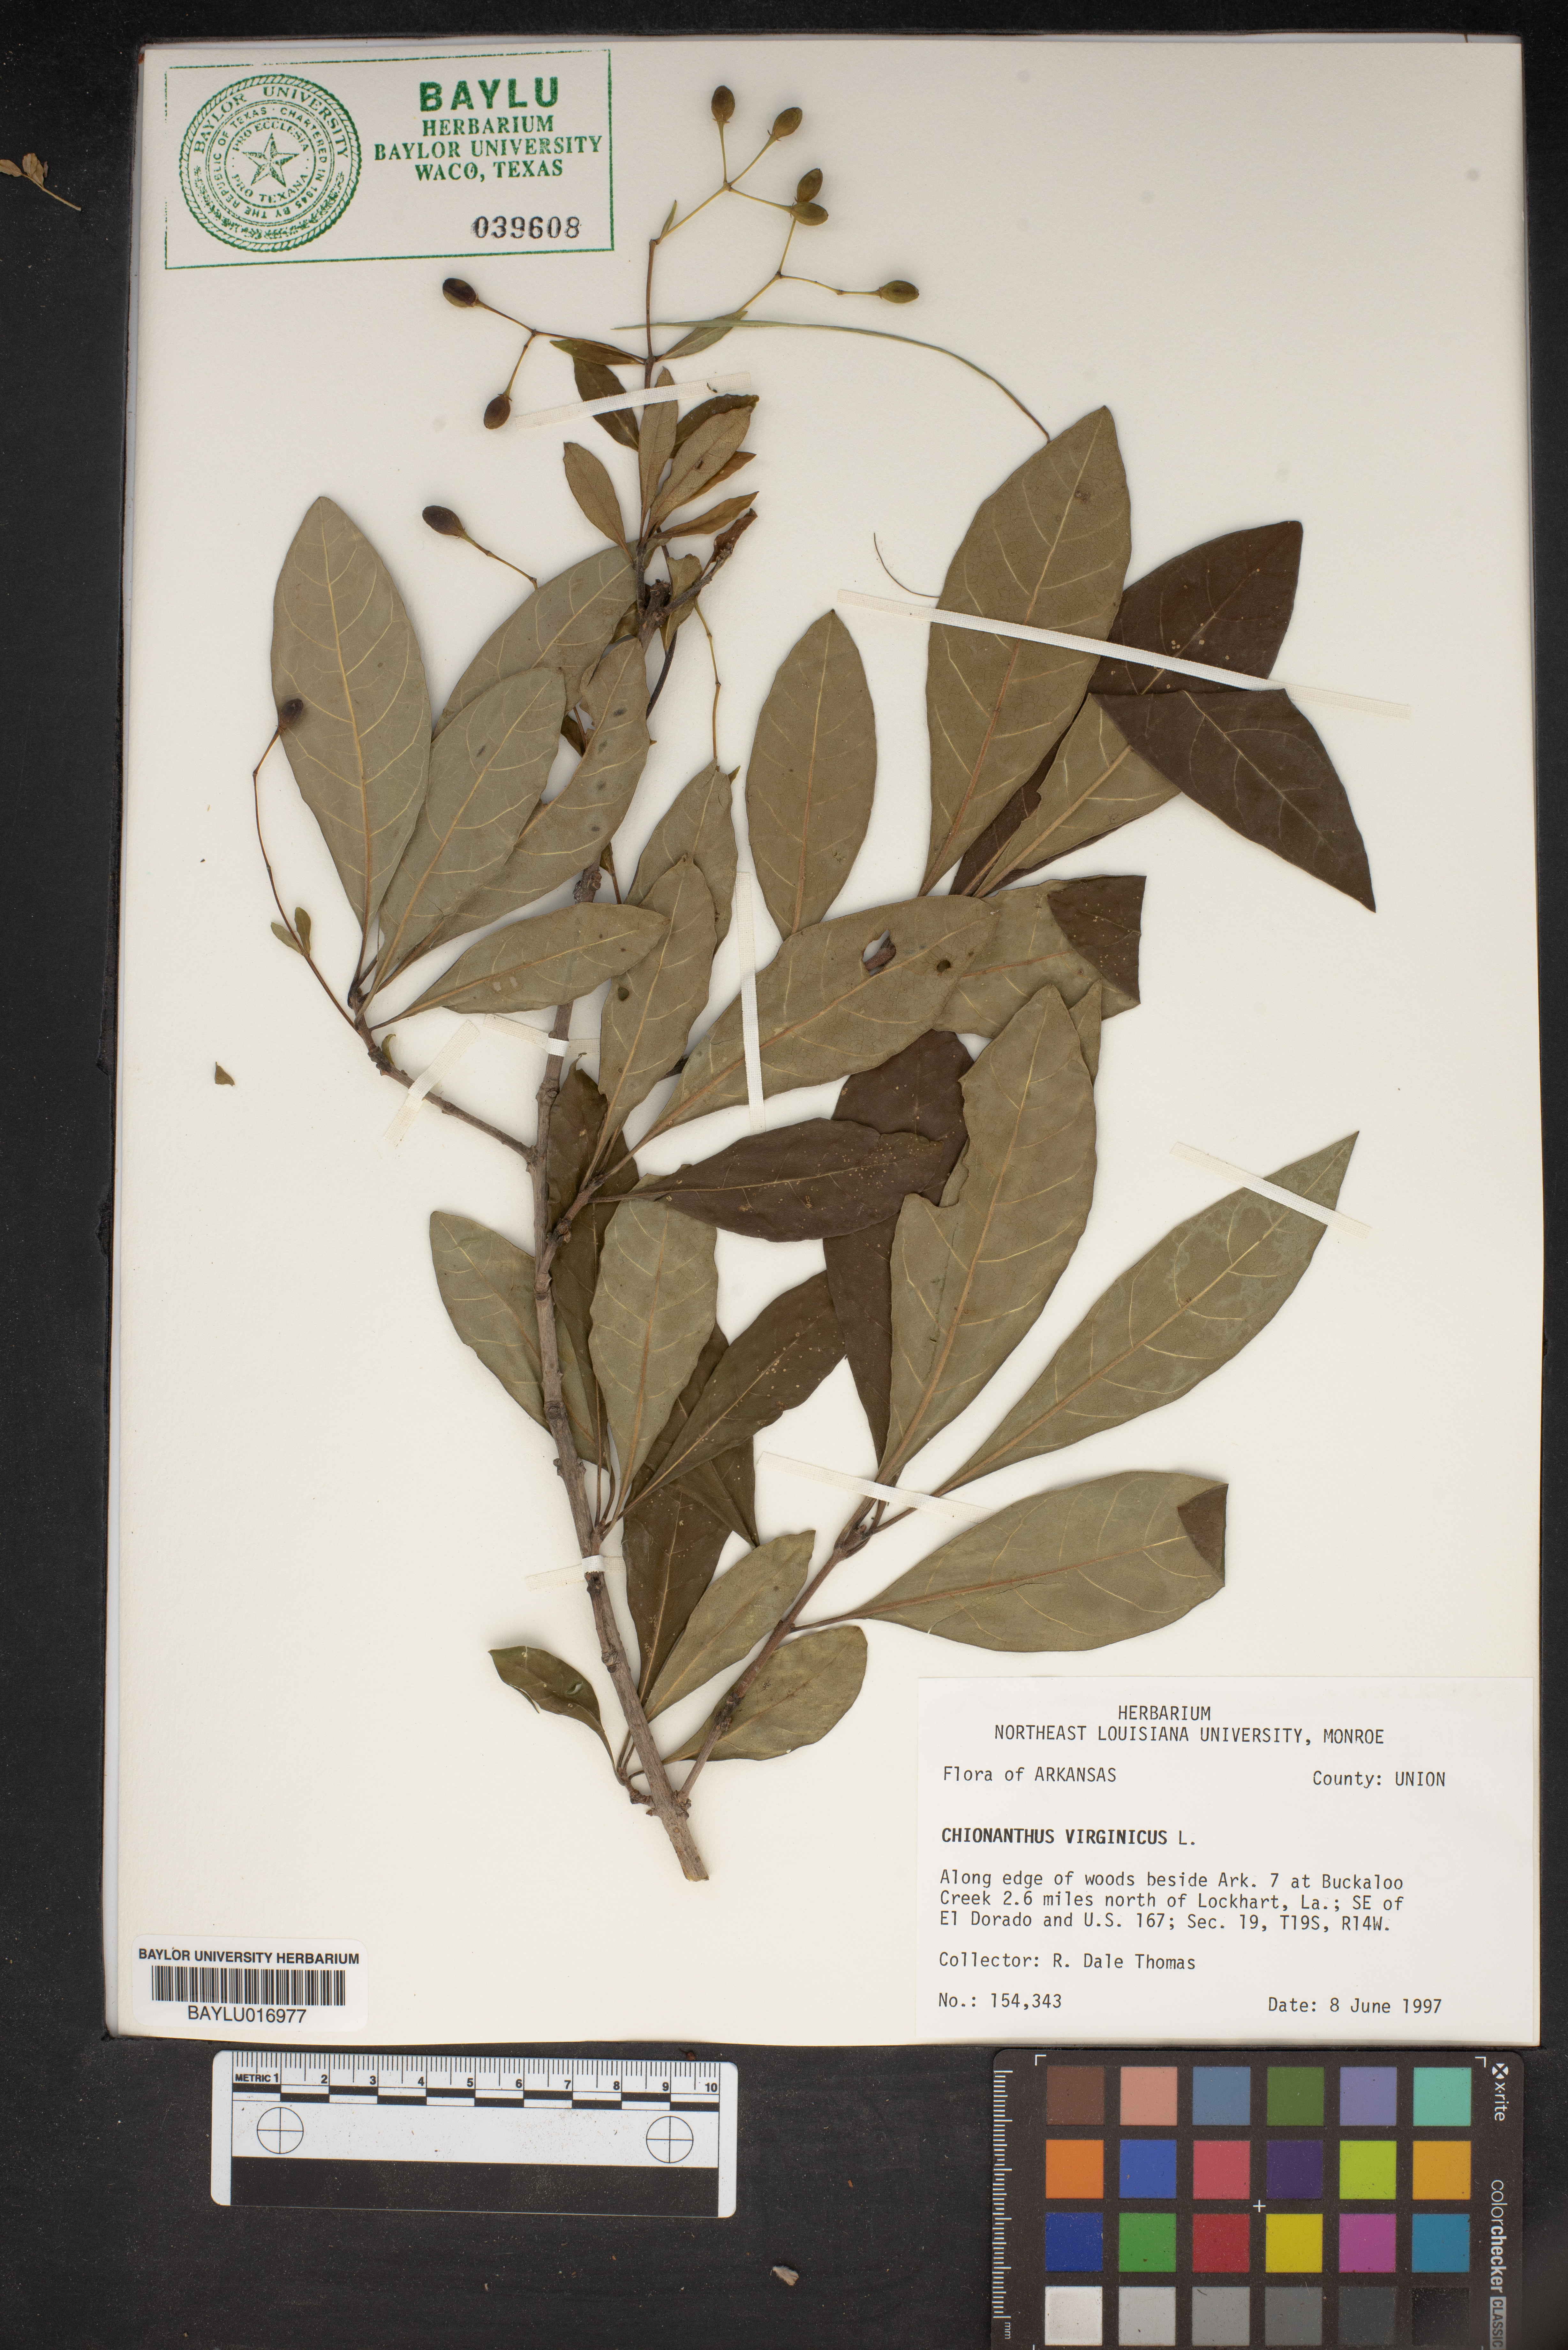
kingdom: Plantae
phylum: Tracheophyta
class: Magnoliopsida
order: Lamiales
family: Oleaceae
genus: Chionanthus
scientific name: Chionanthus virginicus
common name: American fringetree
